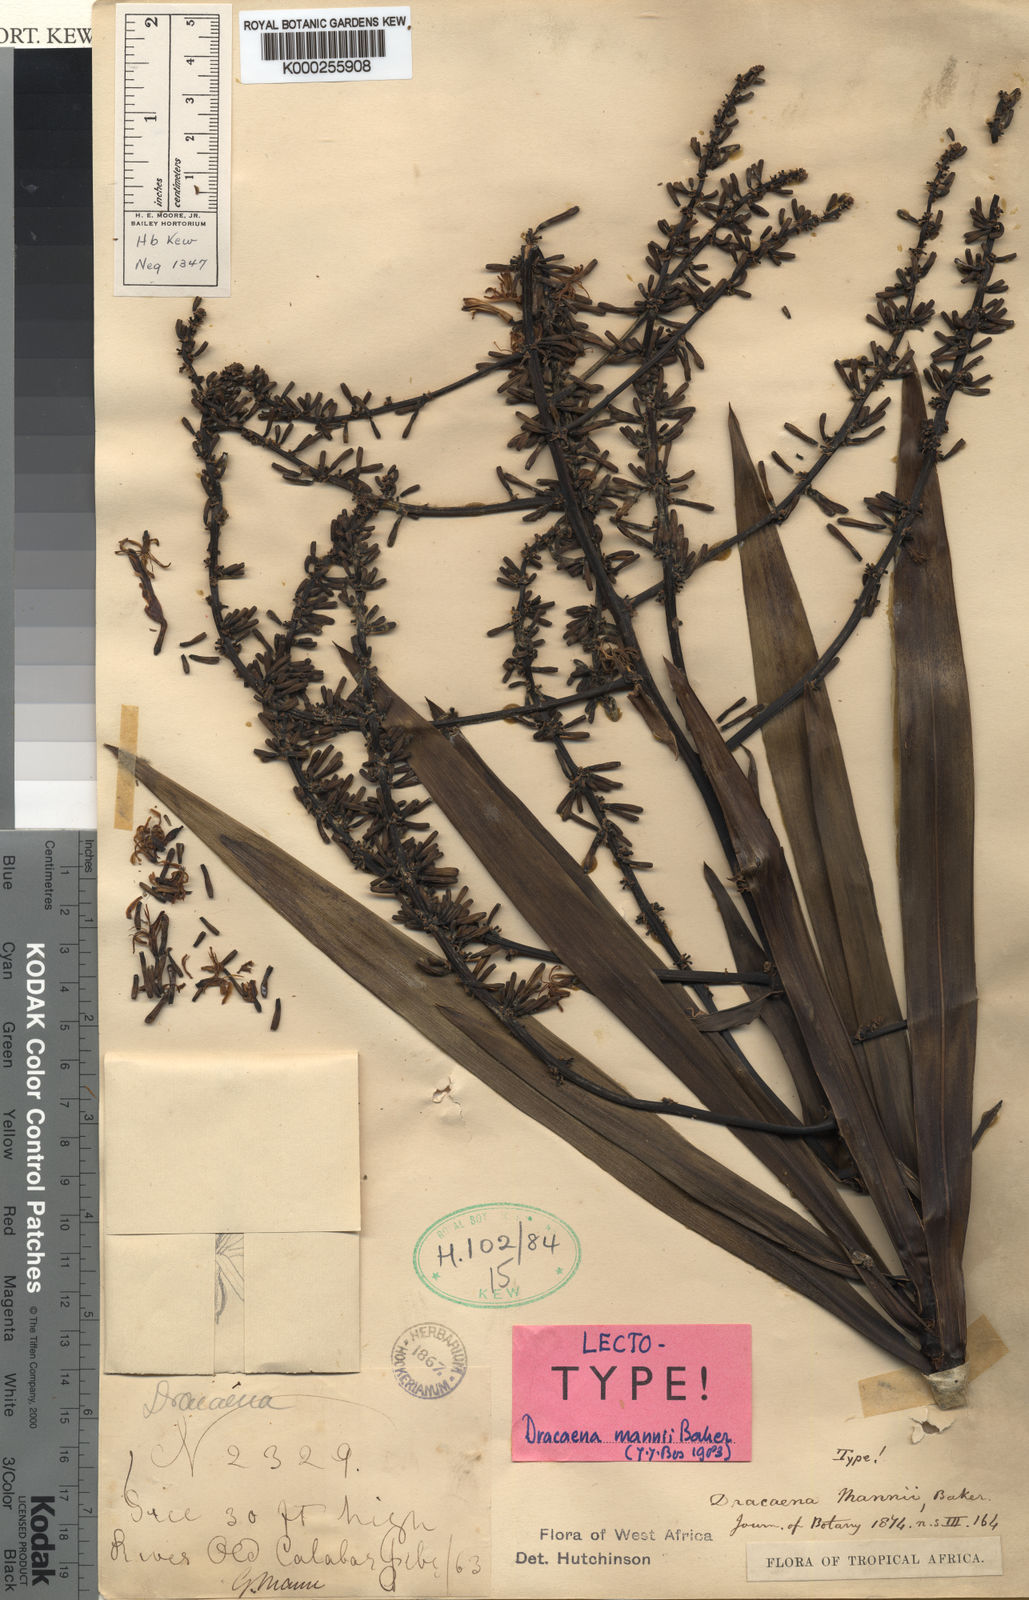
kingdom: Plantae
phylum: Tracheophyta
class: Liliopsida
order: Asparagales
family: Asparagaceae
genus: Dracaena
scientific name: Dracaena mannii
